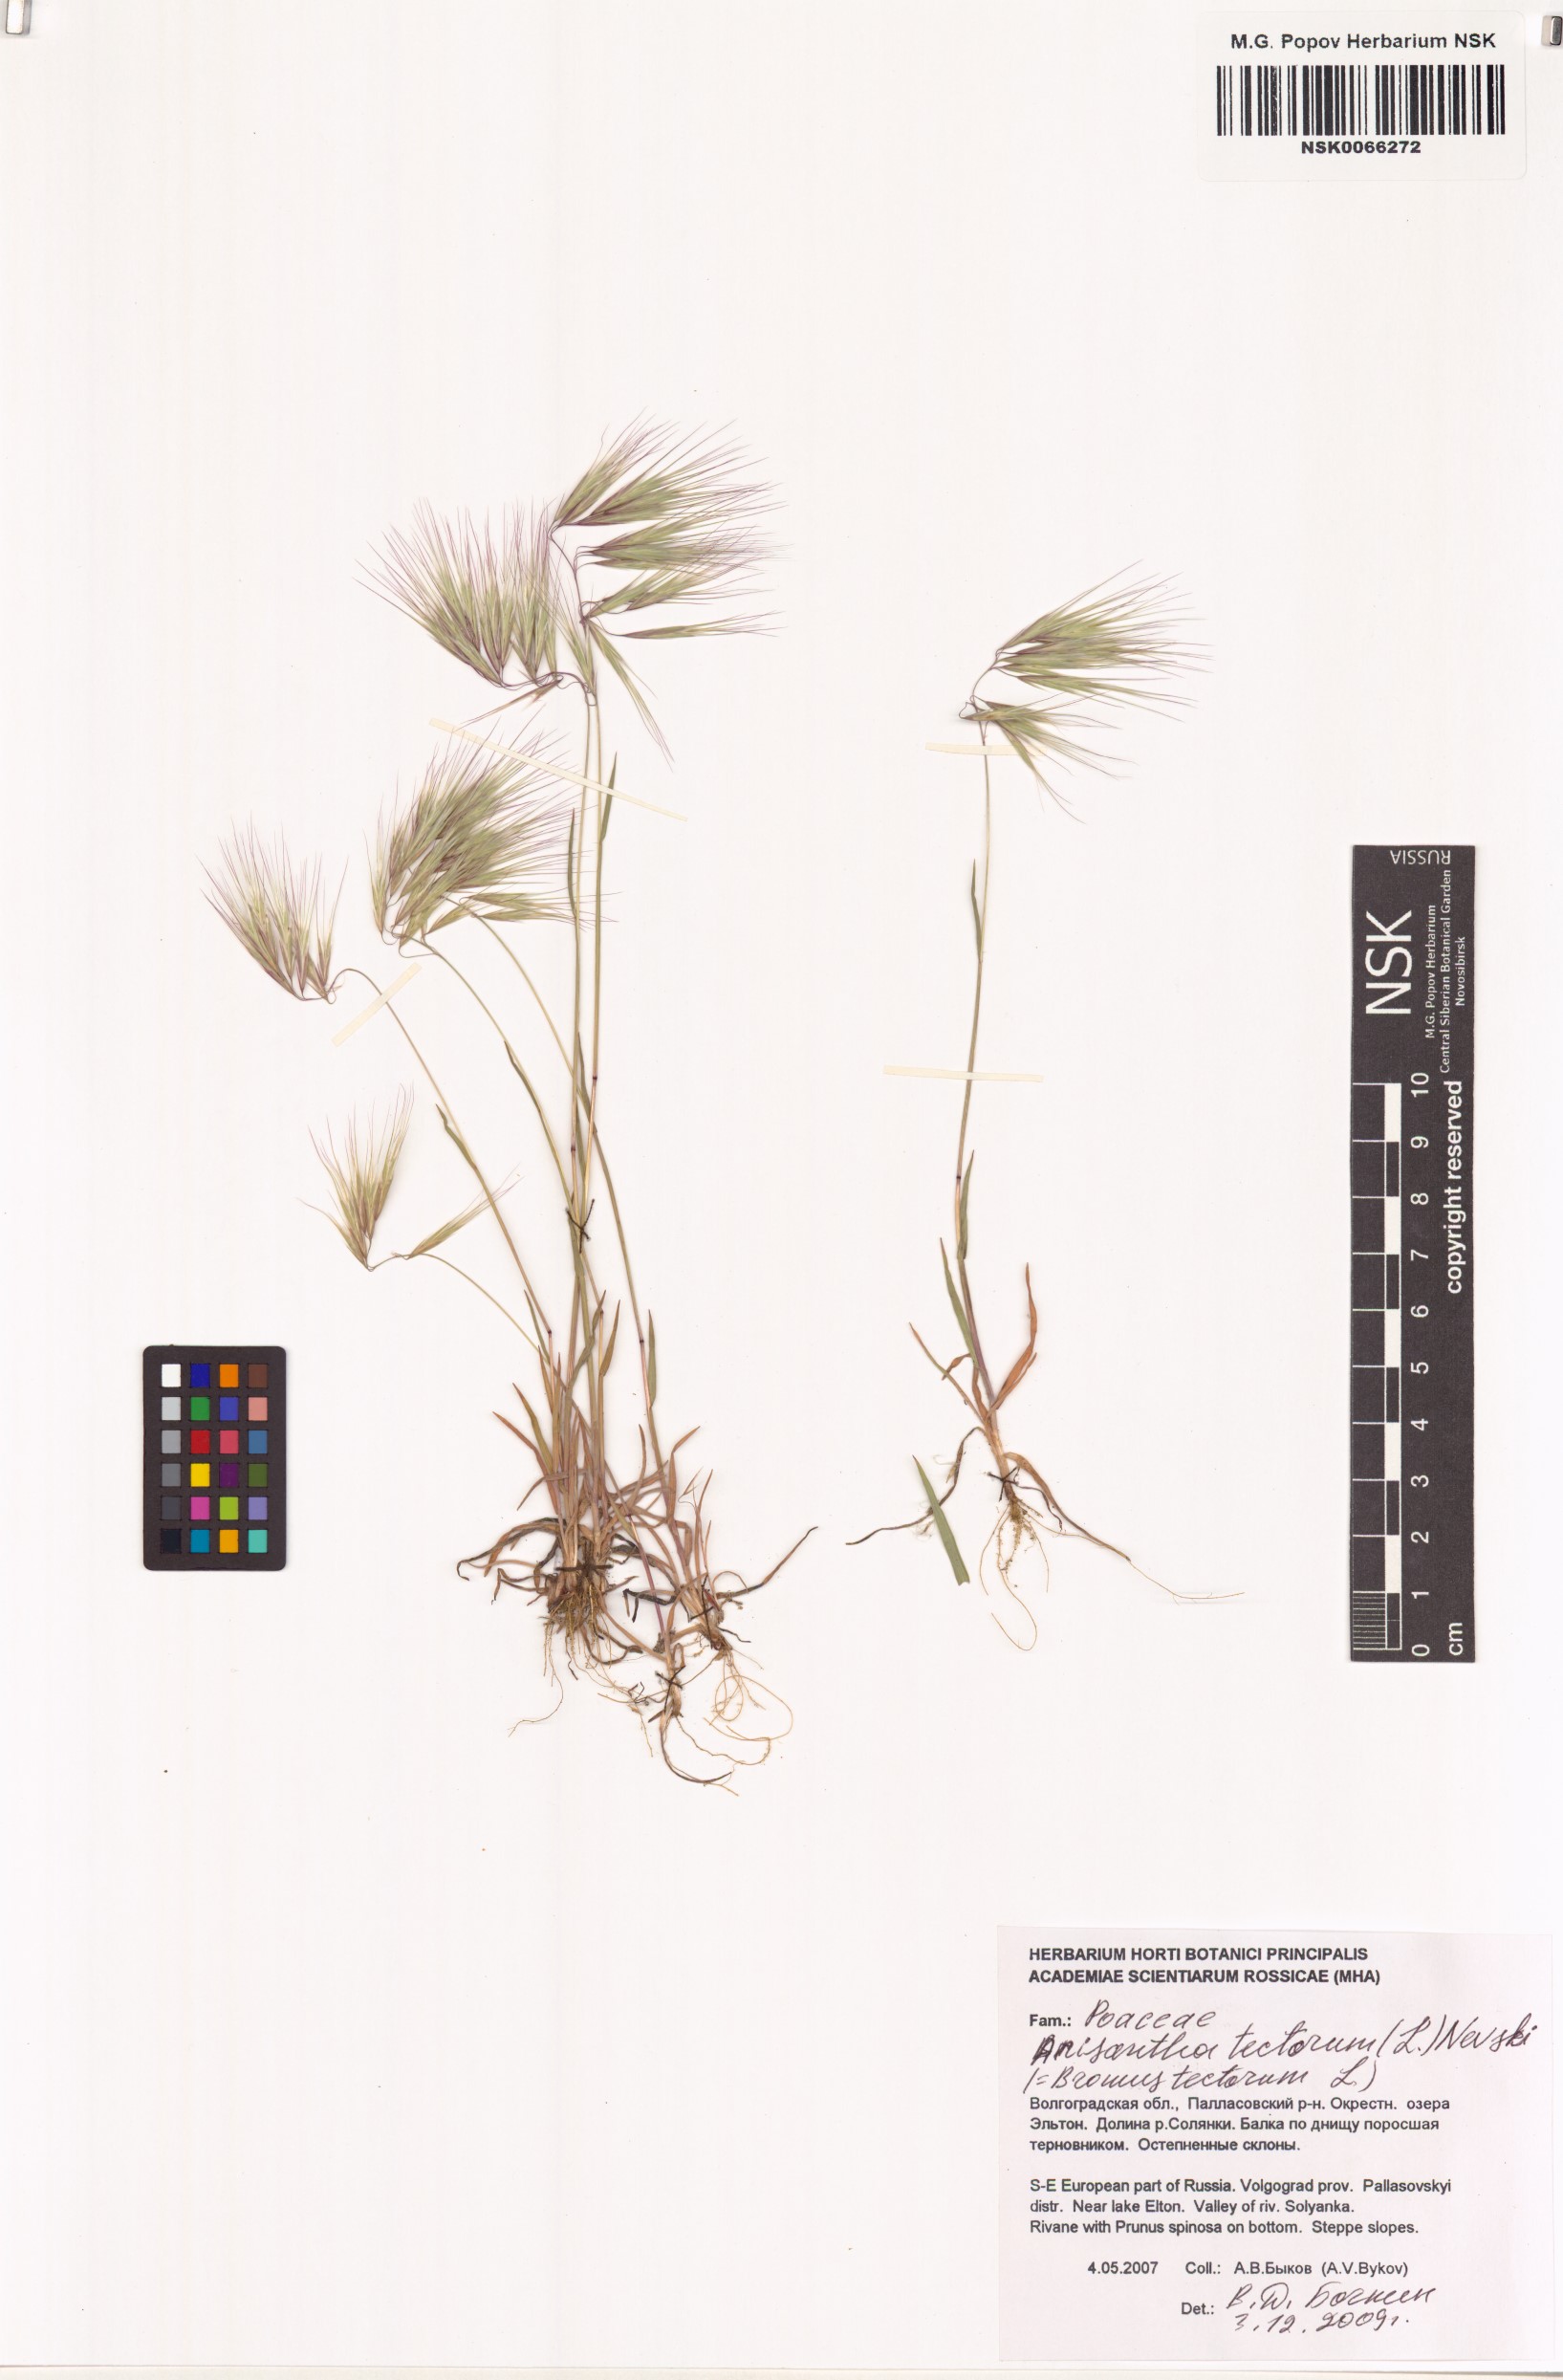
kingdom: Plantae
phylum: Tracheophyta
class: Liliopsida
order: Poales
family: Poaceae
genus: Bromus
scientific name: Bromus tectorum
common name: Cheatgrass
